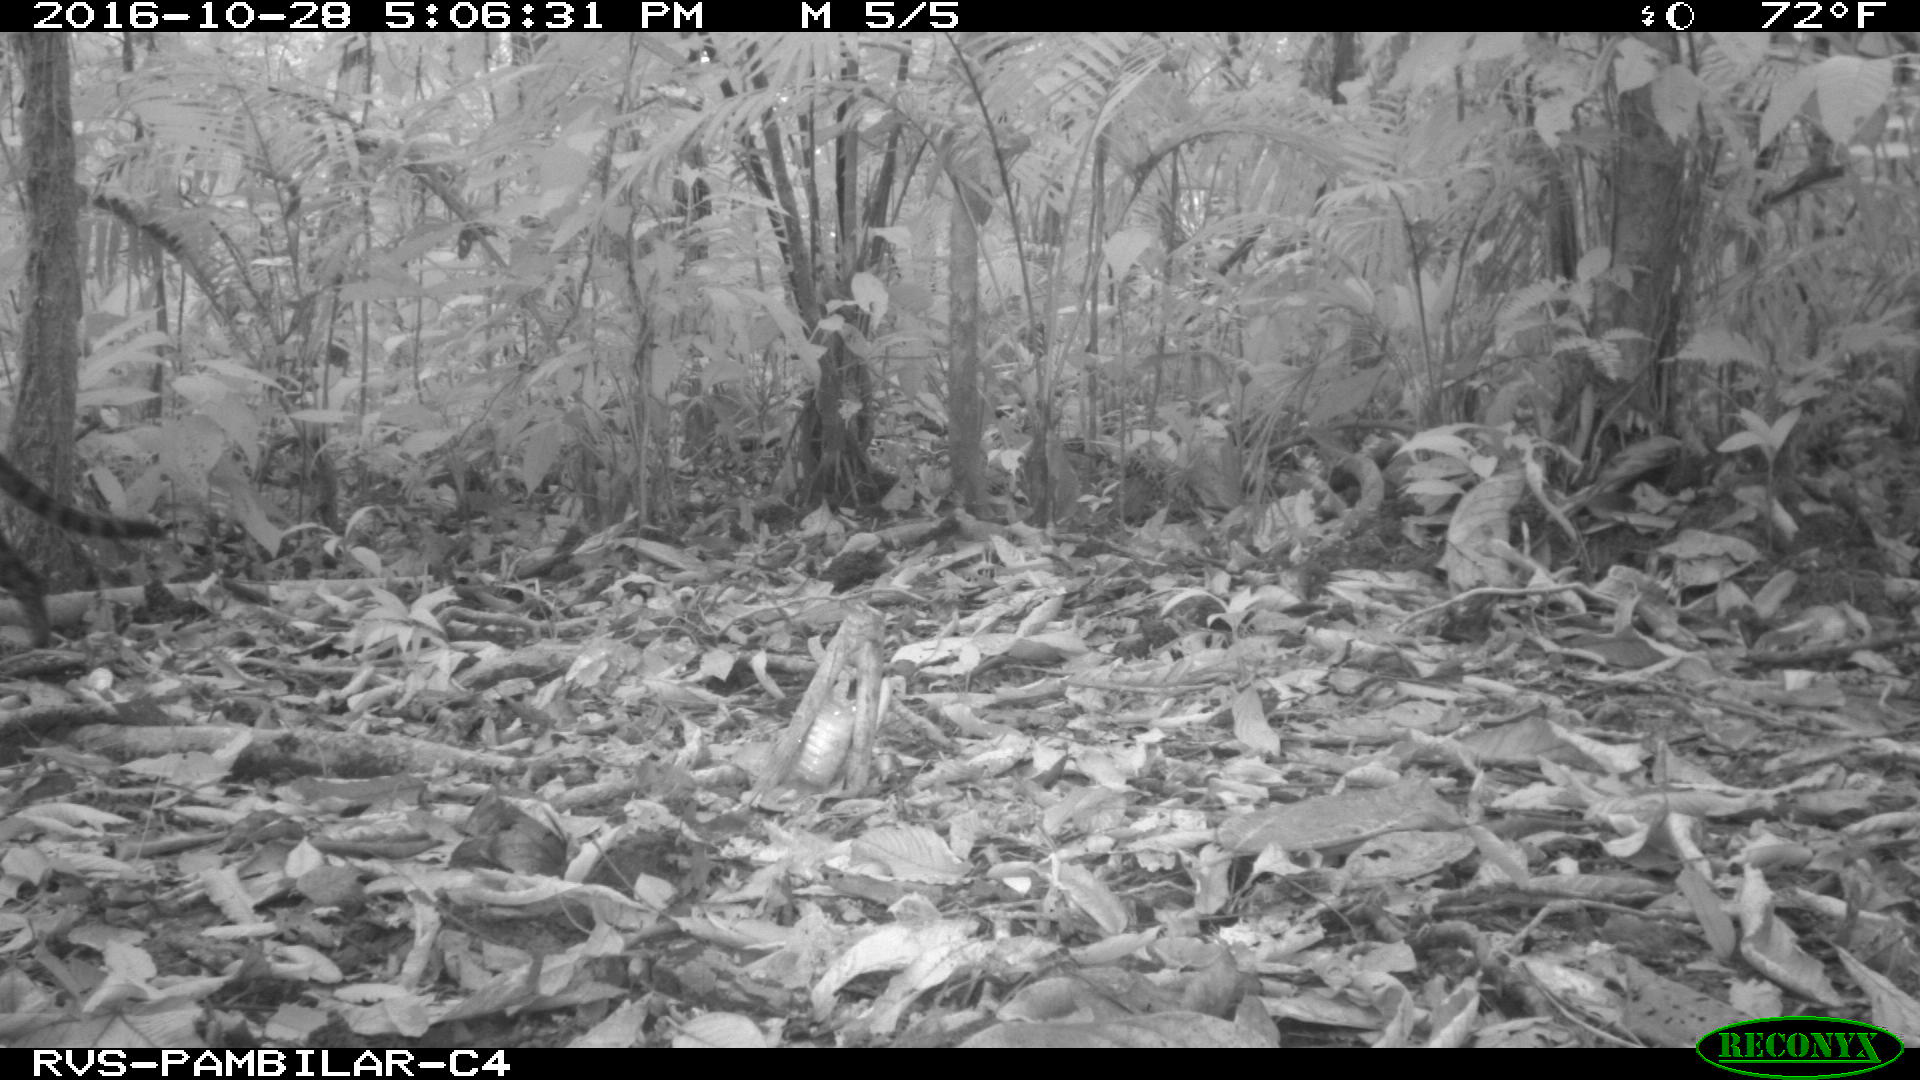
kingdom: Animalia
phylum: Chordata
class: Mammalia
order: Carnivora
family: Felidae
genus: Leopardus
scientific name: Leopardus pardalis
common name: Ocelot
